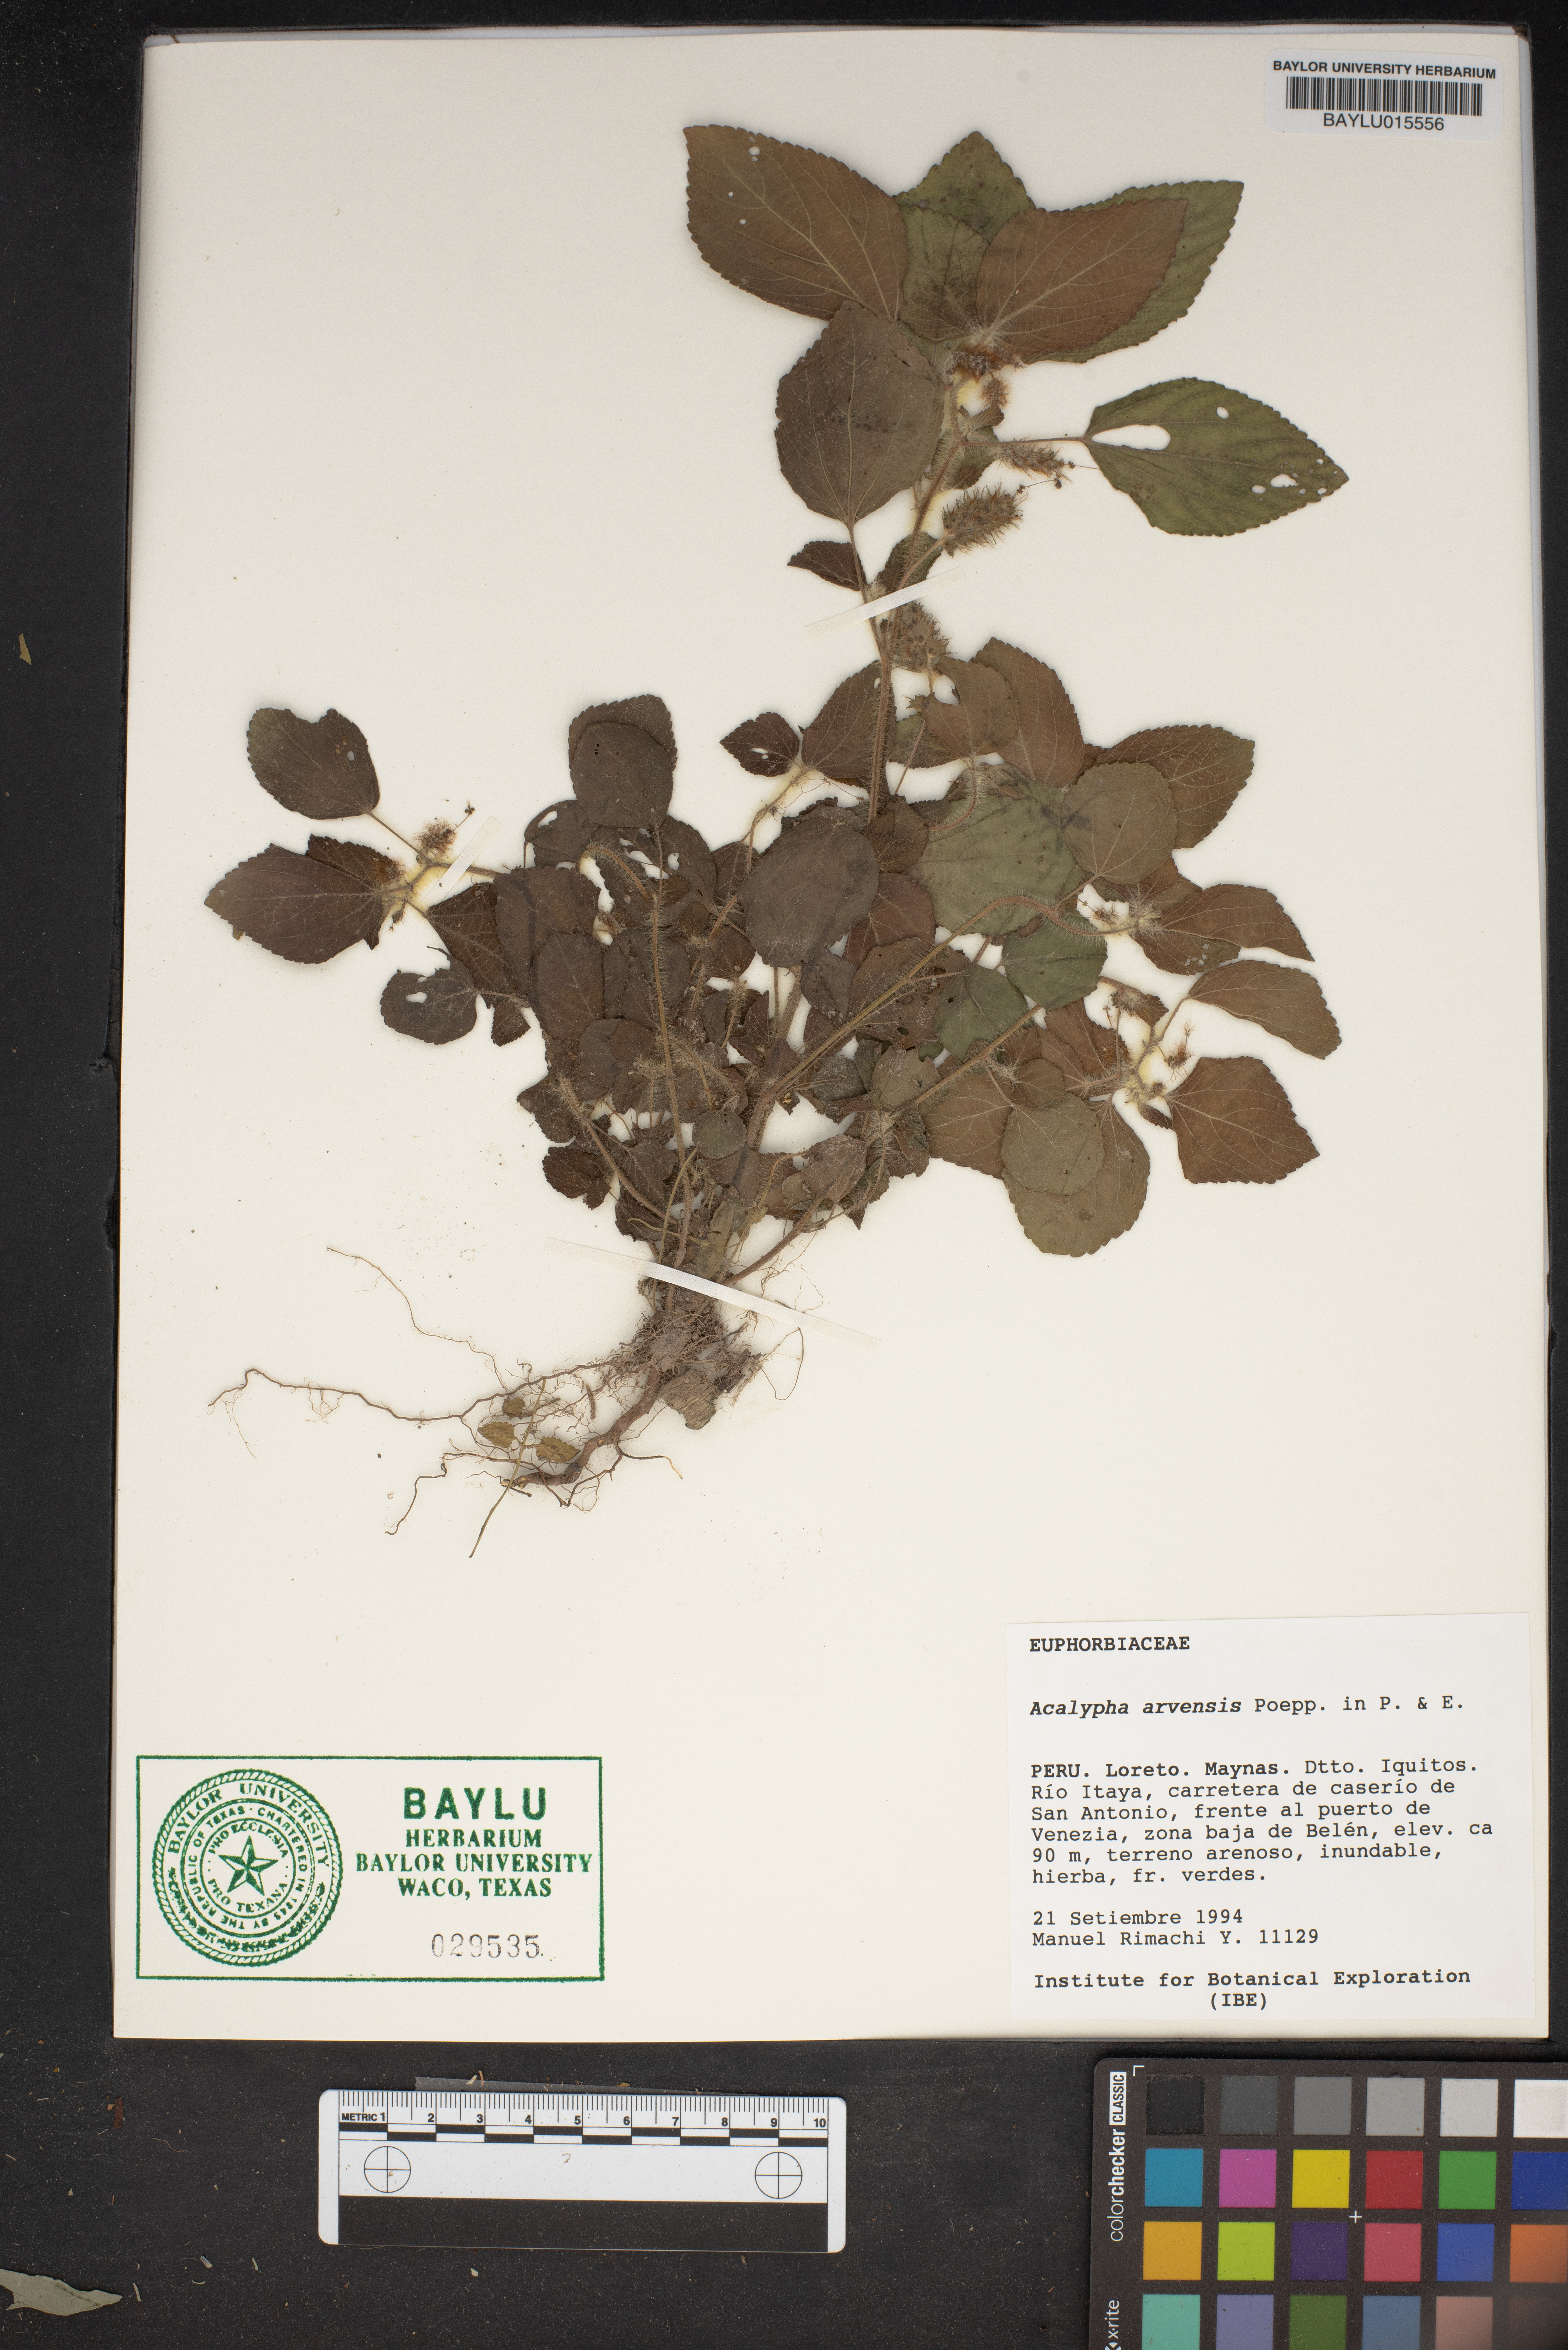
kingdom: Plantae
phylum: Tracheophyta
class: Magnoliopsida
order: Malpighiales
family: Euphorbiaceae
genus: Acalypha
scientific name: Acalypha arvensis
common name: Field copperleaf
